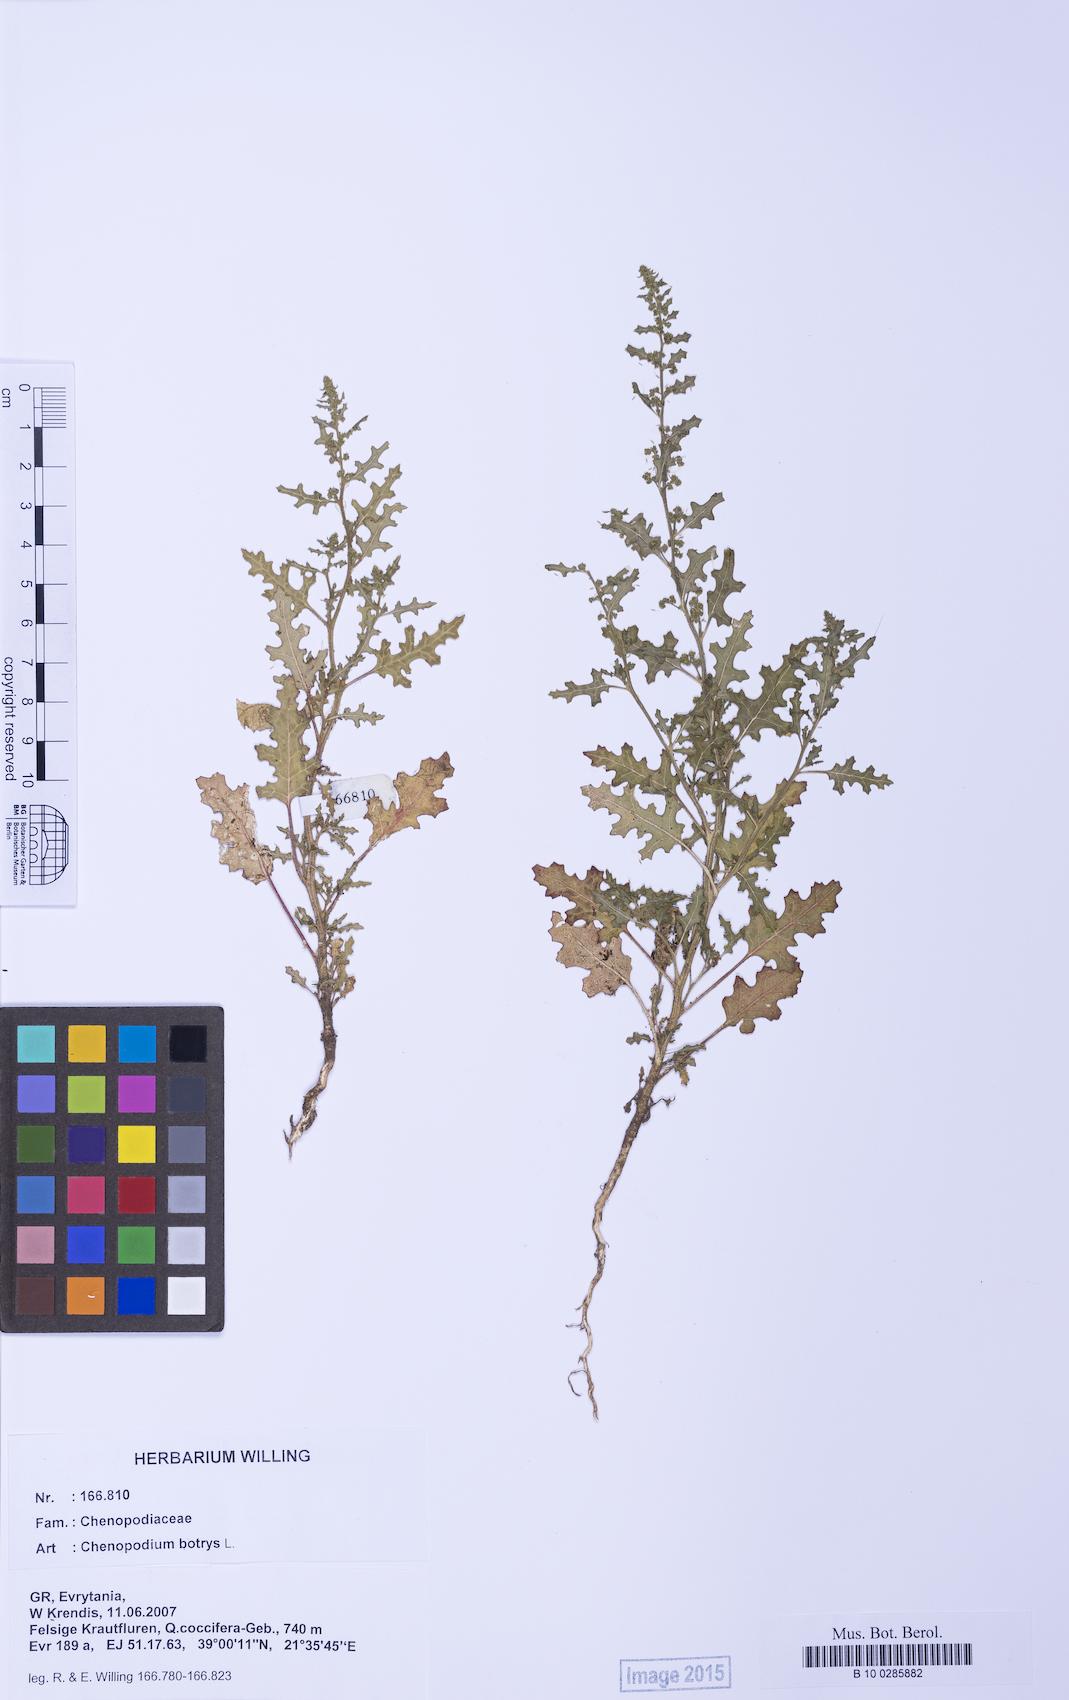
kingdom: Plantae
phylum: Tracheophyta
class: Magnoliopsida
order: Caryophyllales
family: Amaranthaceae
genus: Dysphania
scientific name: Dysphania botrys
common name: Feather-geranium
